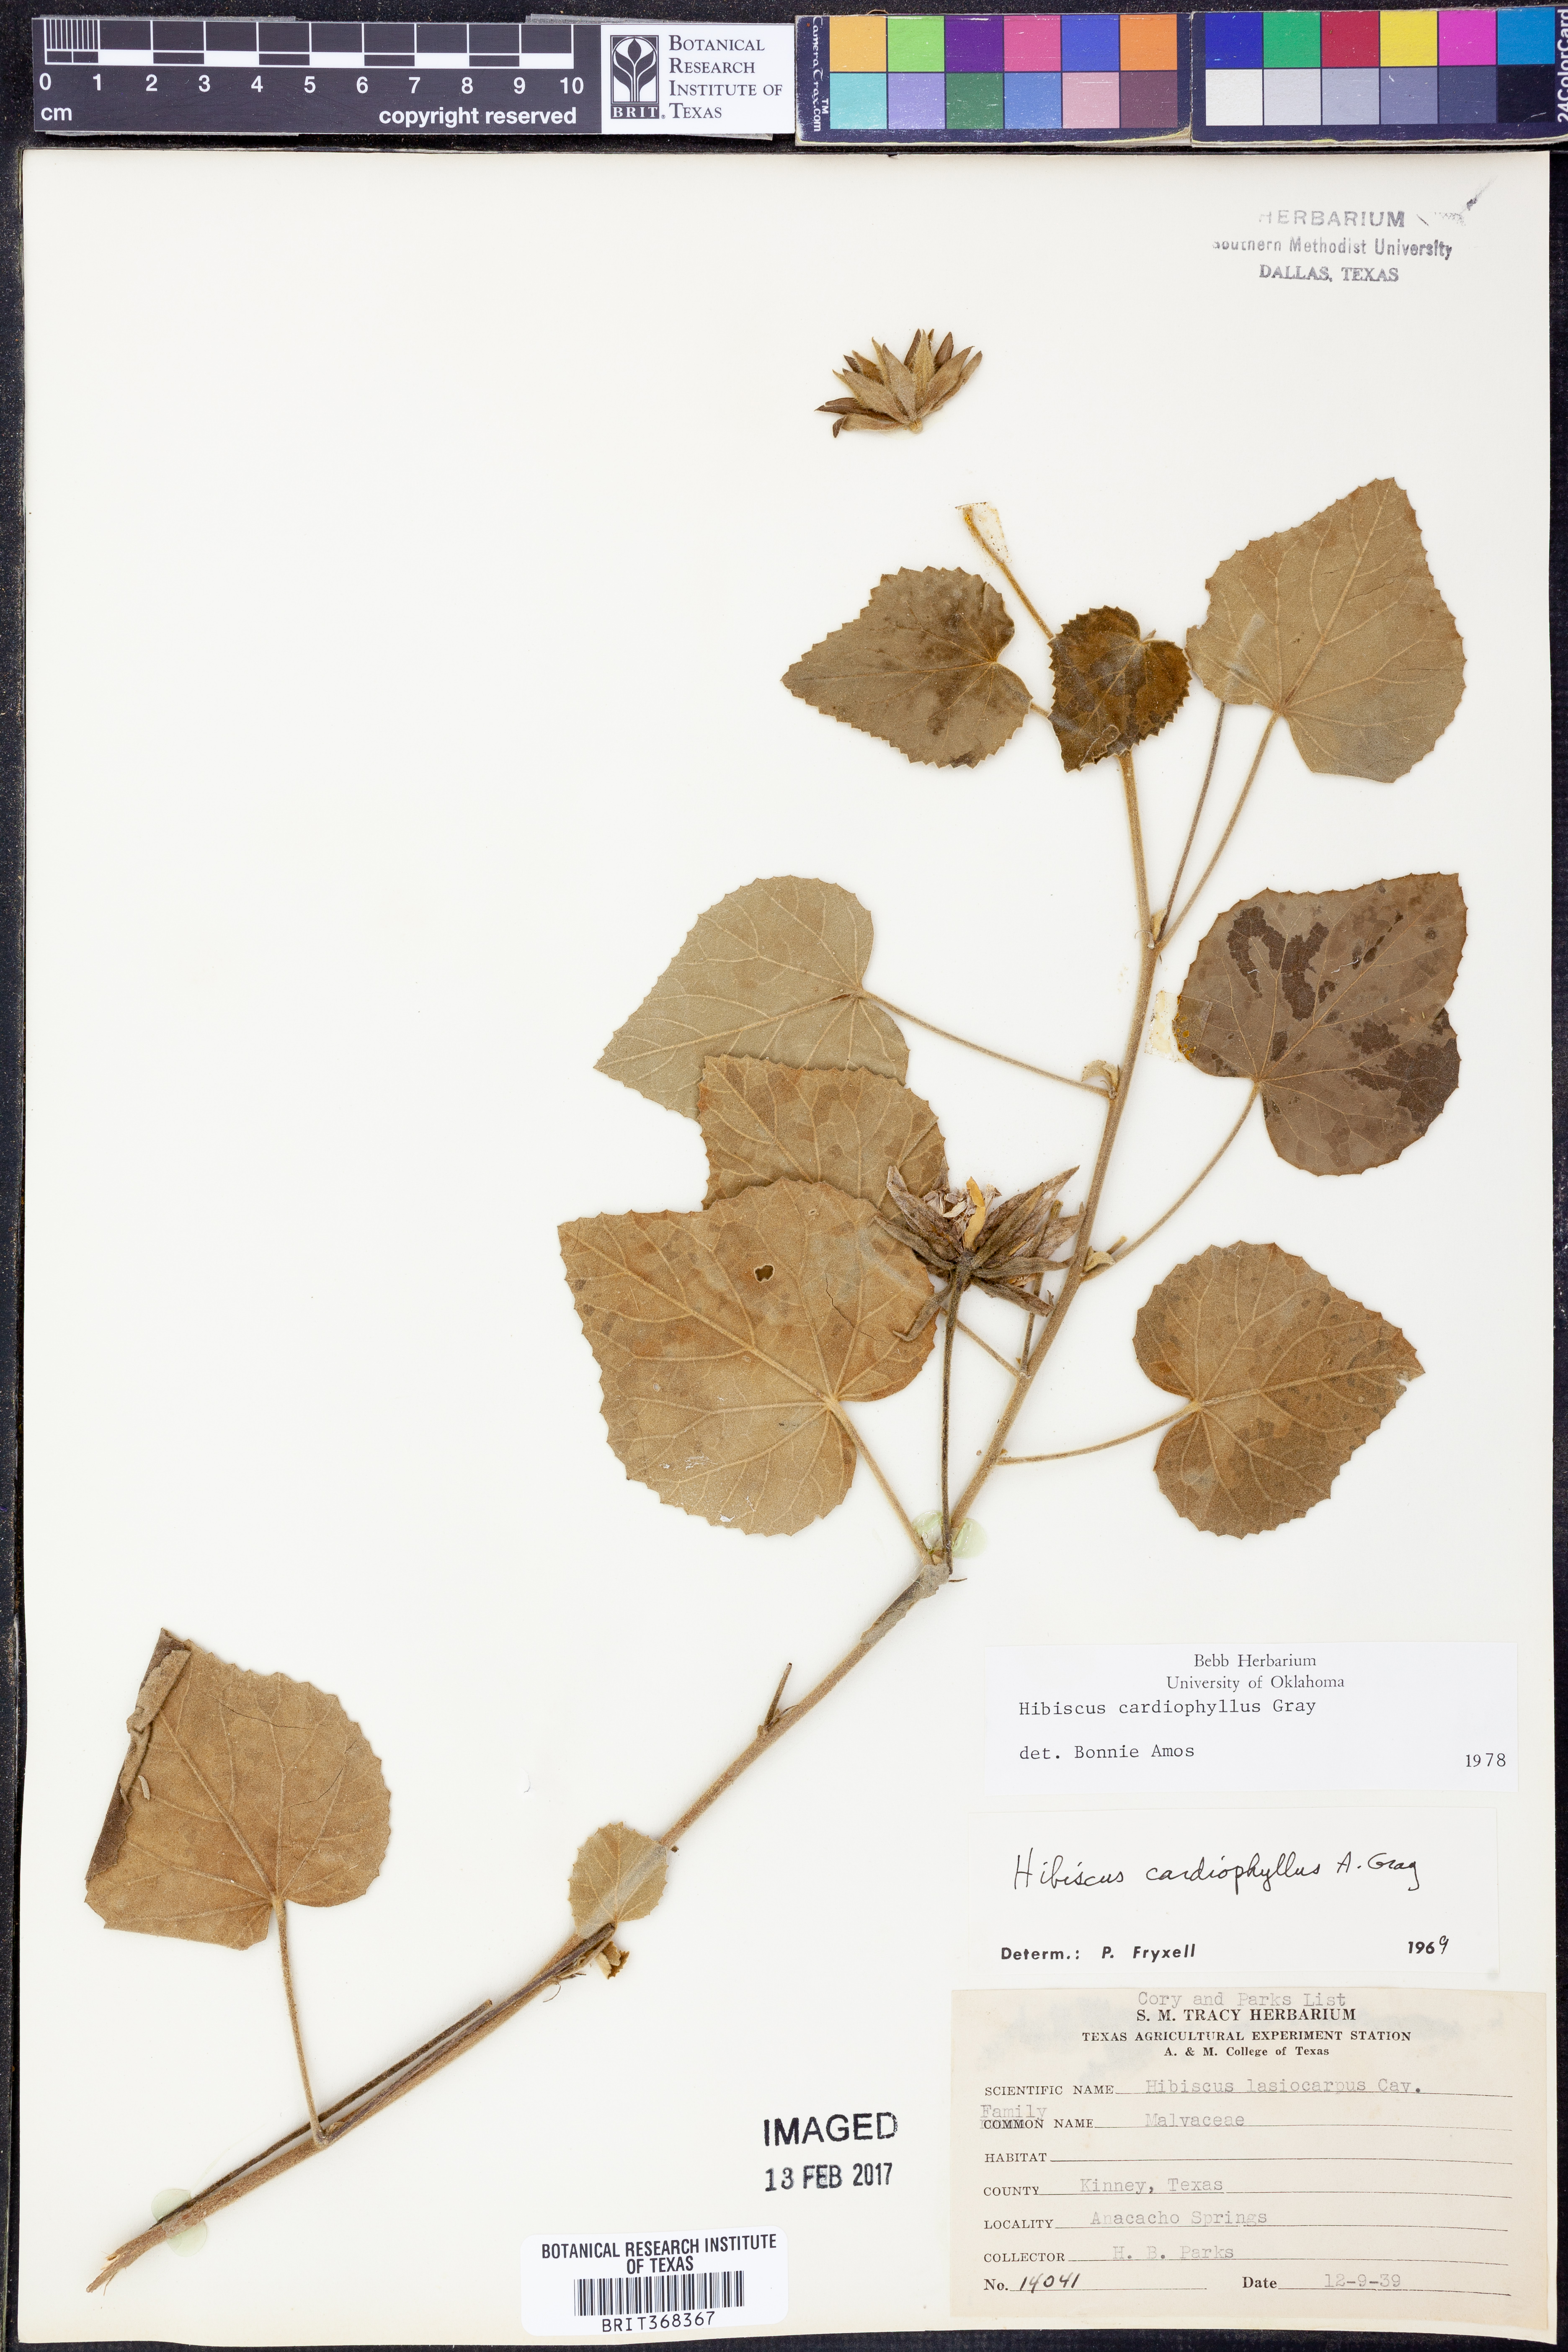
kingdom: Plantae
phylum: Tracheophyta
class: Magnoliopsida
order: Malvales
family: Malvaceae
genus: Abelmoschus
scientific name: Abelmoschus moschatus
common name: Musk okra
